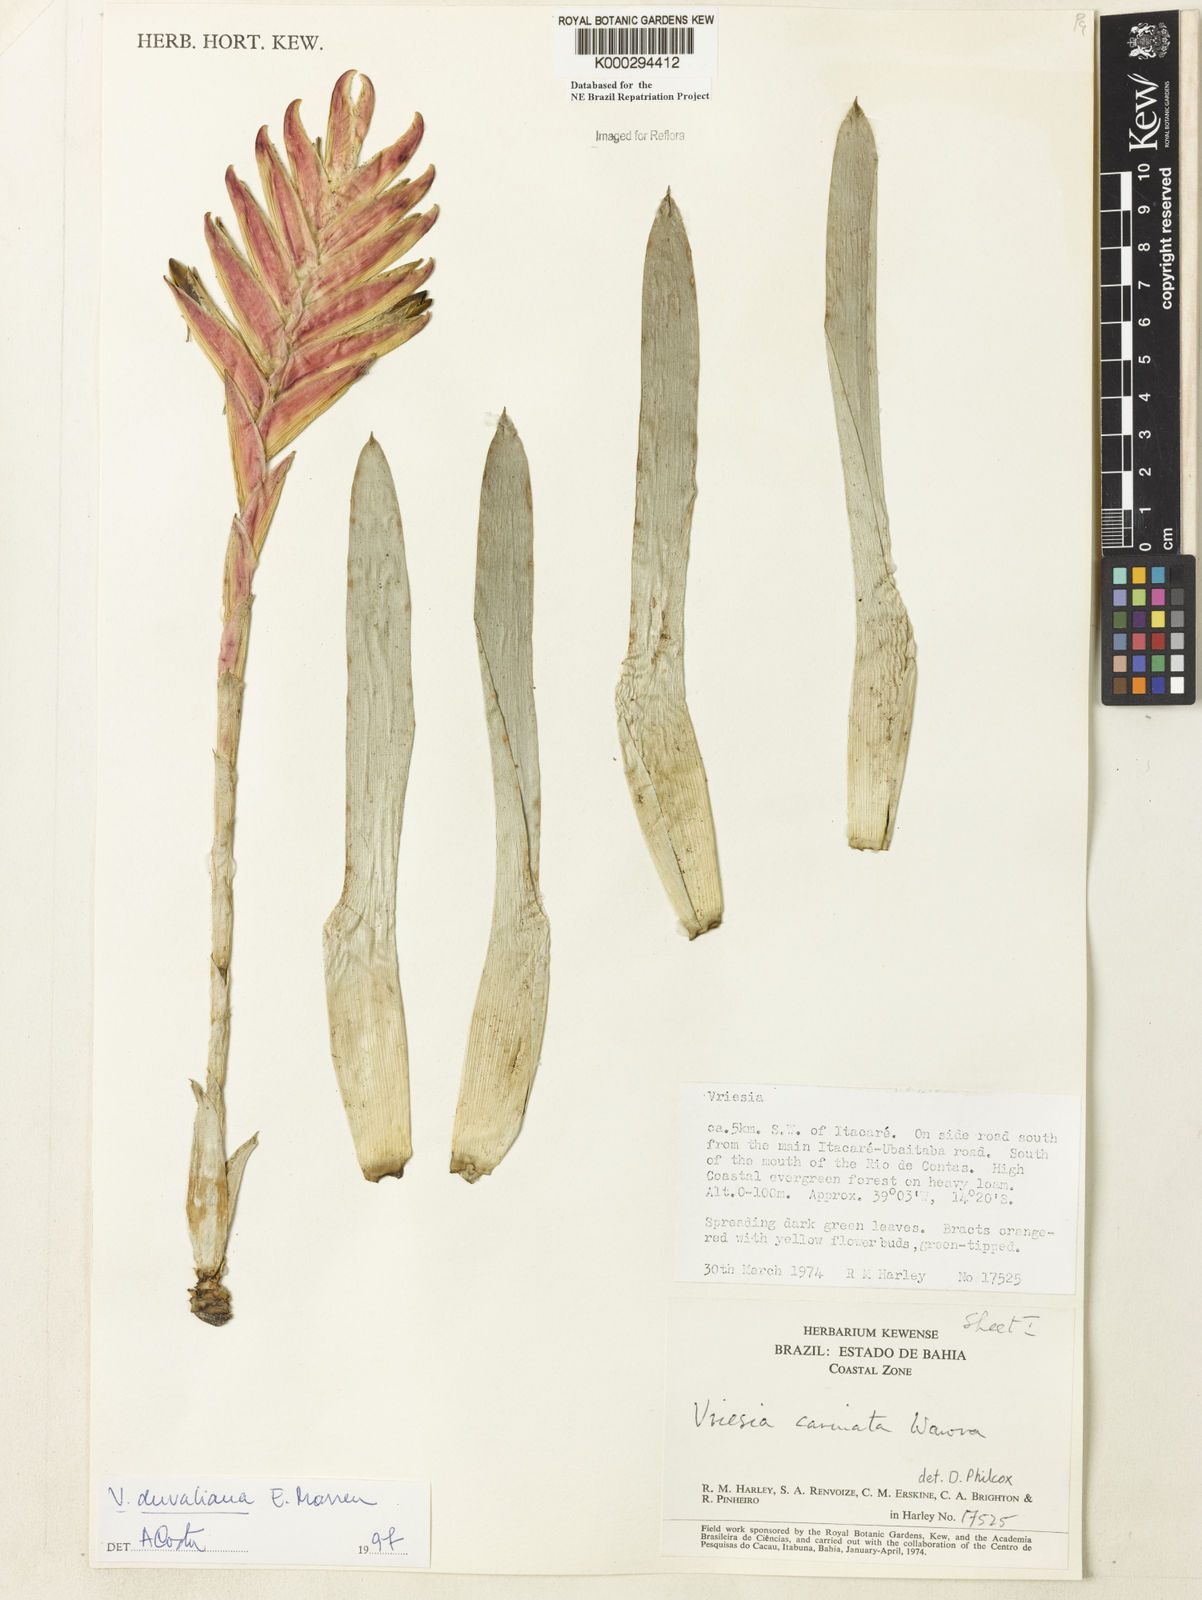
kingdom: Plantae
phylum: Tracheophyta
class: Liliopsida
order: Poales
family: Bromeliaceae
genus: Vriesea
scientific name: Vriesea duvaliana
